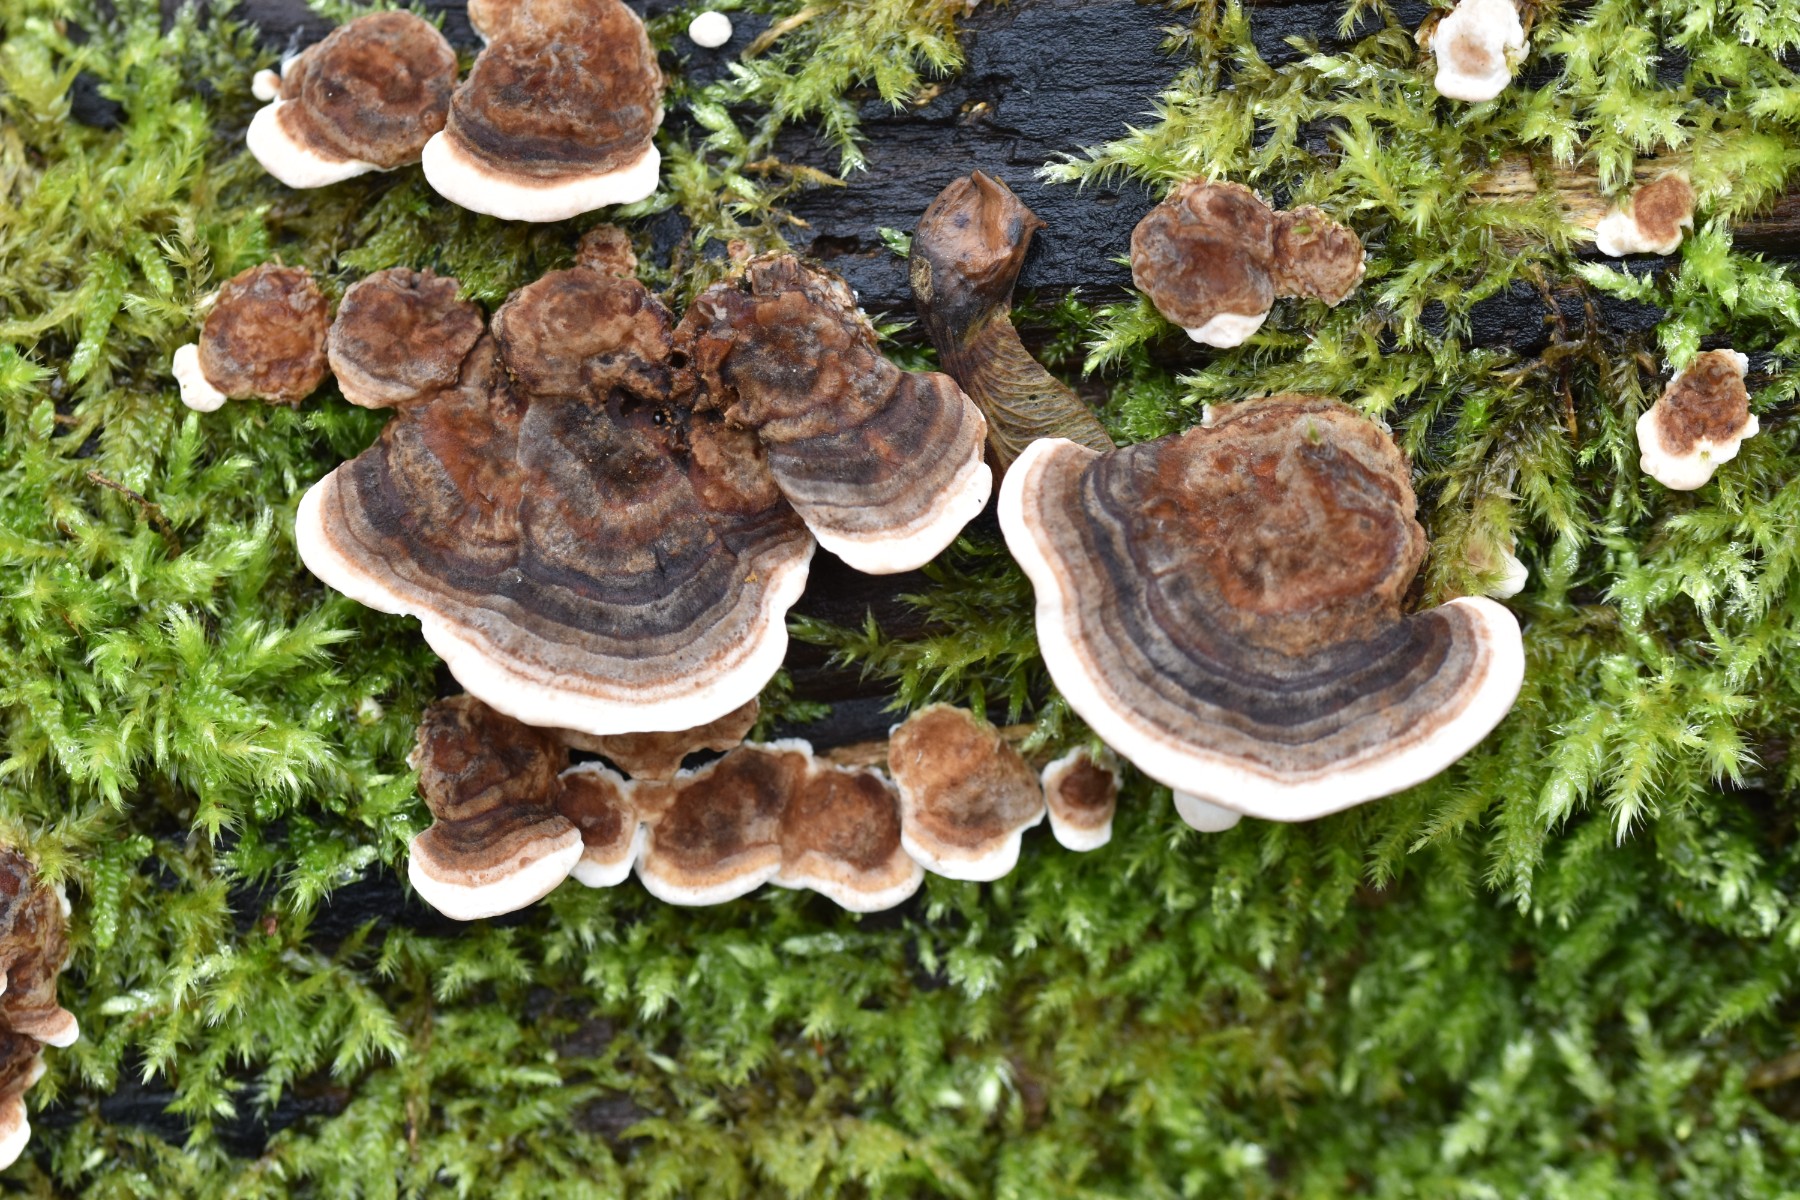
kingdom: Fungi
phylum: Basidiomycota
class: Agaricomycetes
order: Polyporales
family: Polyporaceae
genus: Trametes
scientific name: Trametes versicolor
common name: broget læderporesvamp
